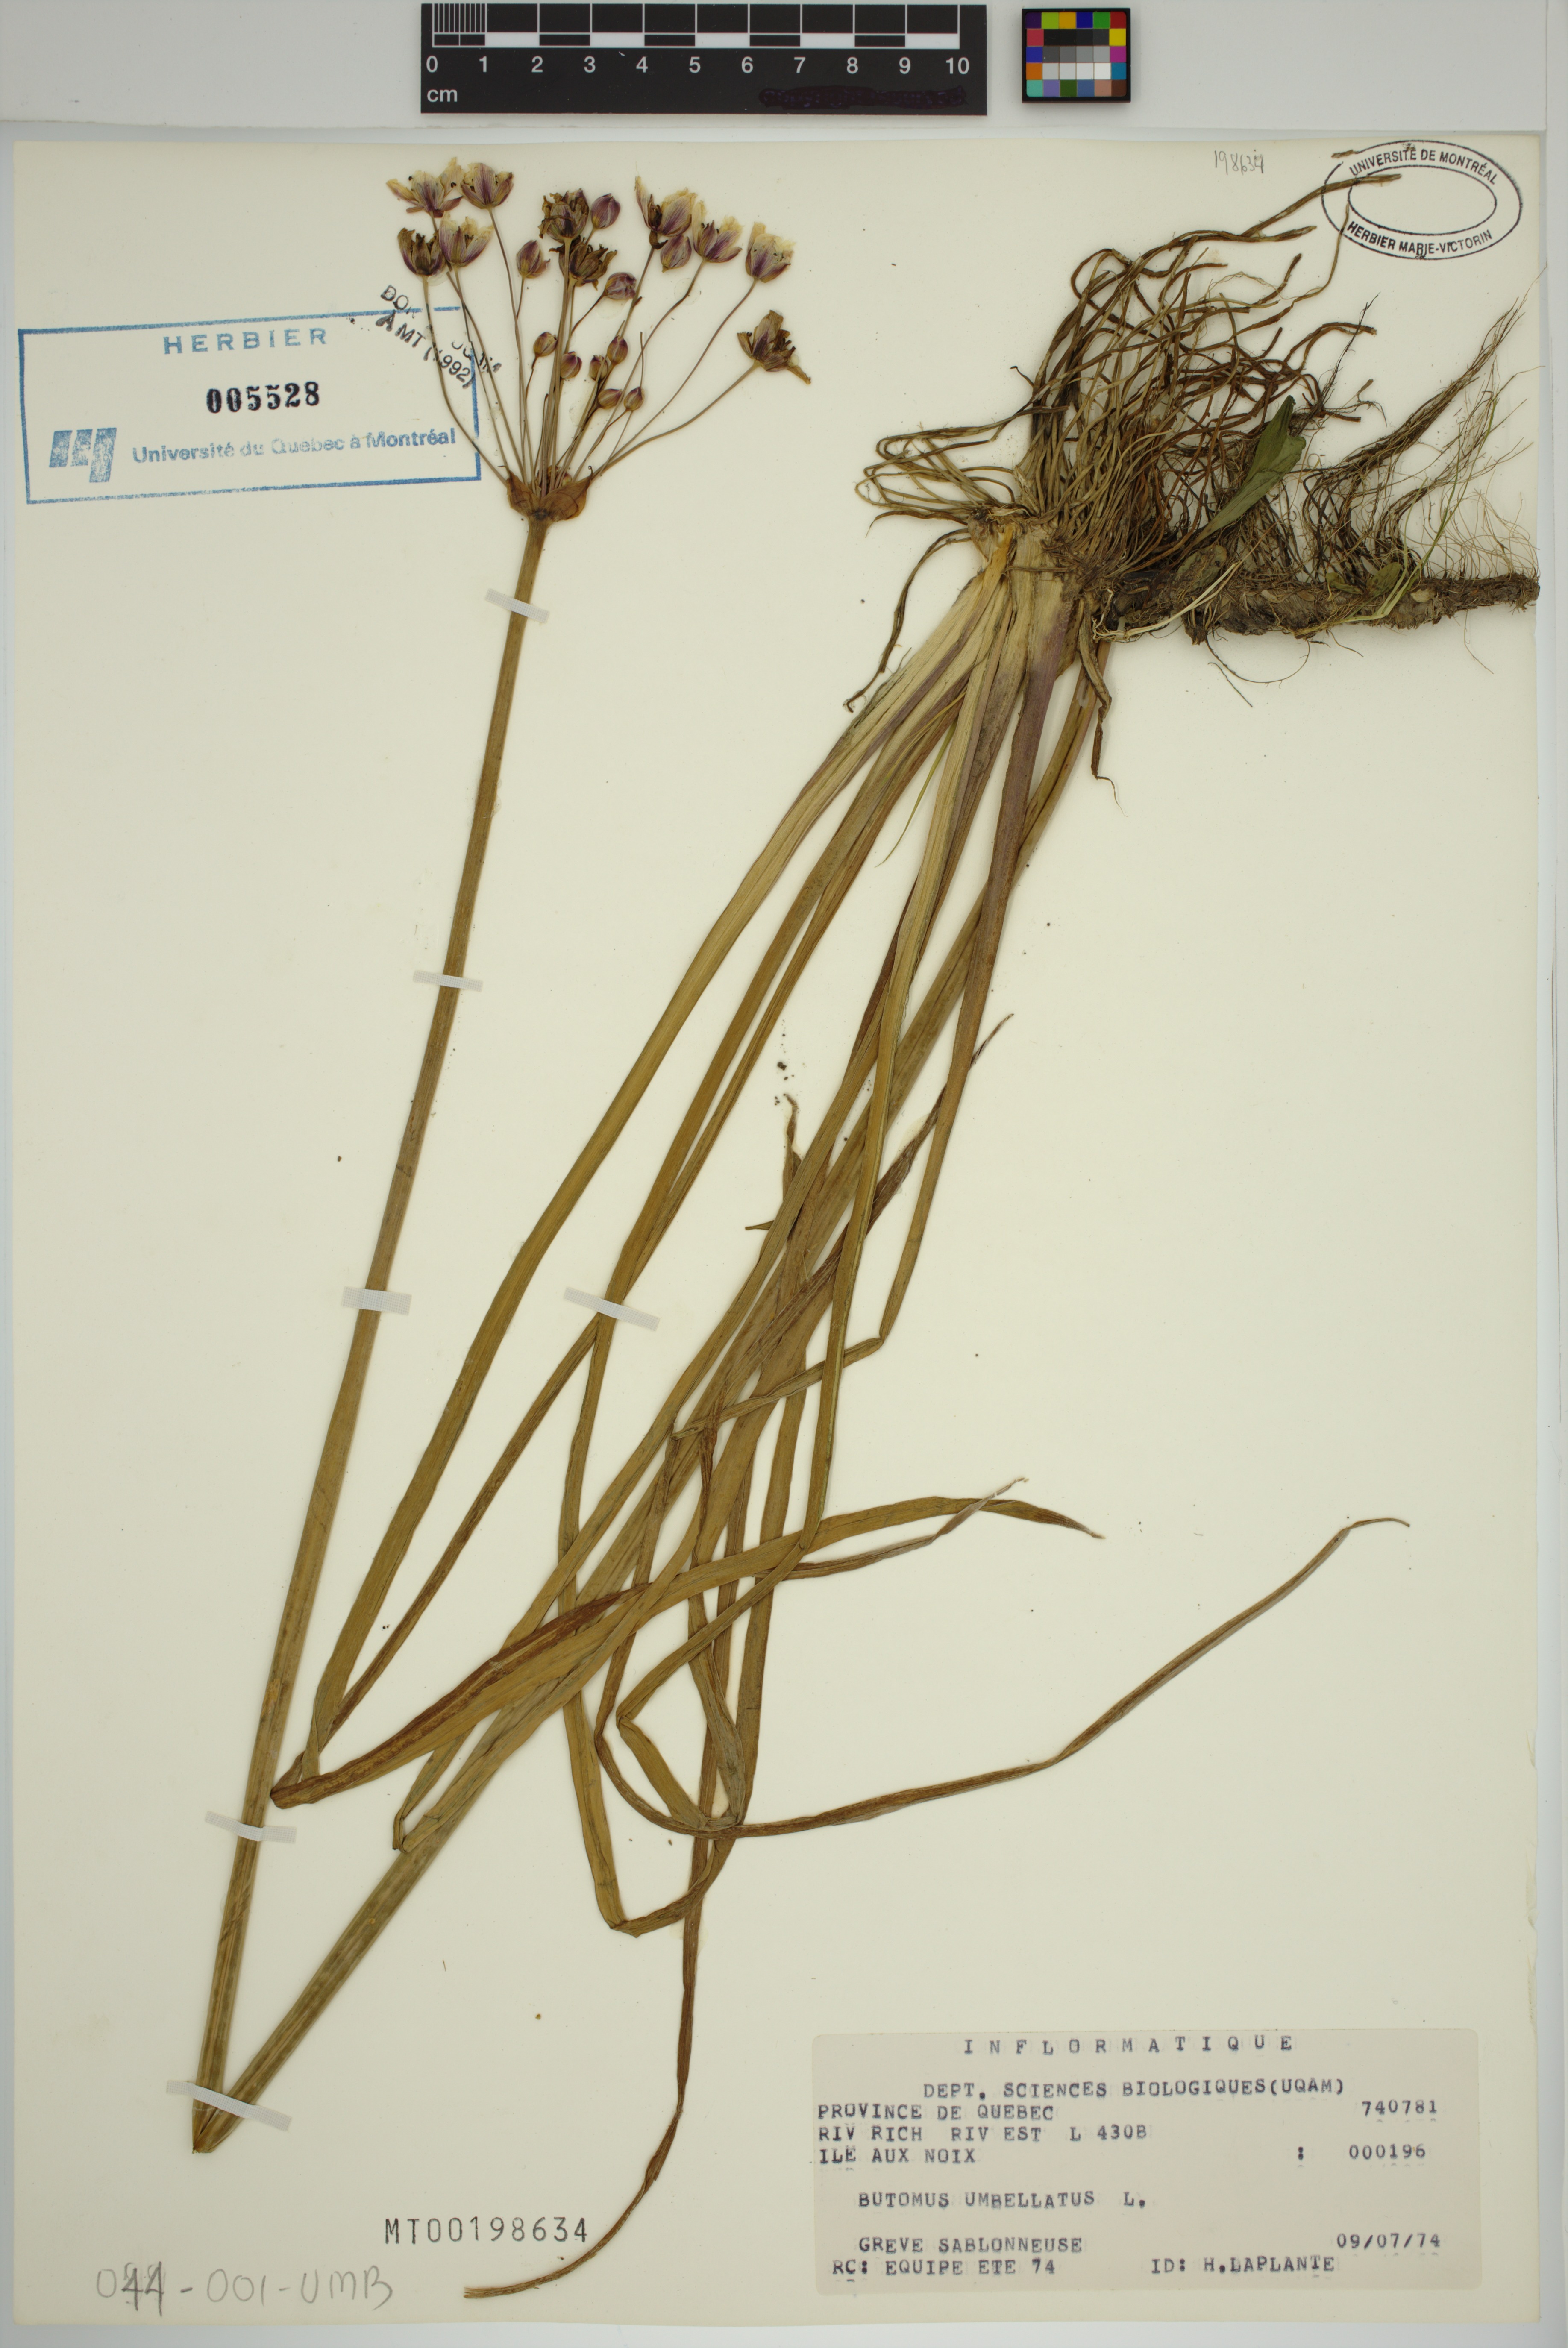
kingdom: Plantae
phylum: Tracheophyta
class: Liliopsida
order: Alismatales
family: Butomaceae
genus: Butomus
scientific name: Butomus umbellatus
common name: Flowering-rush
